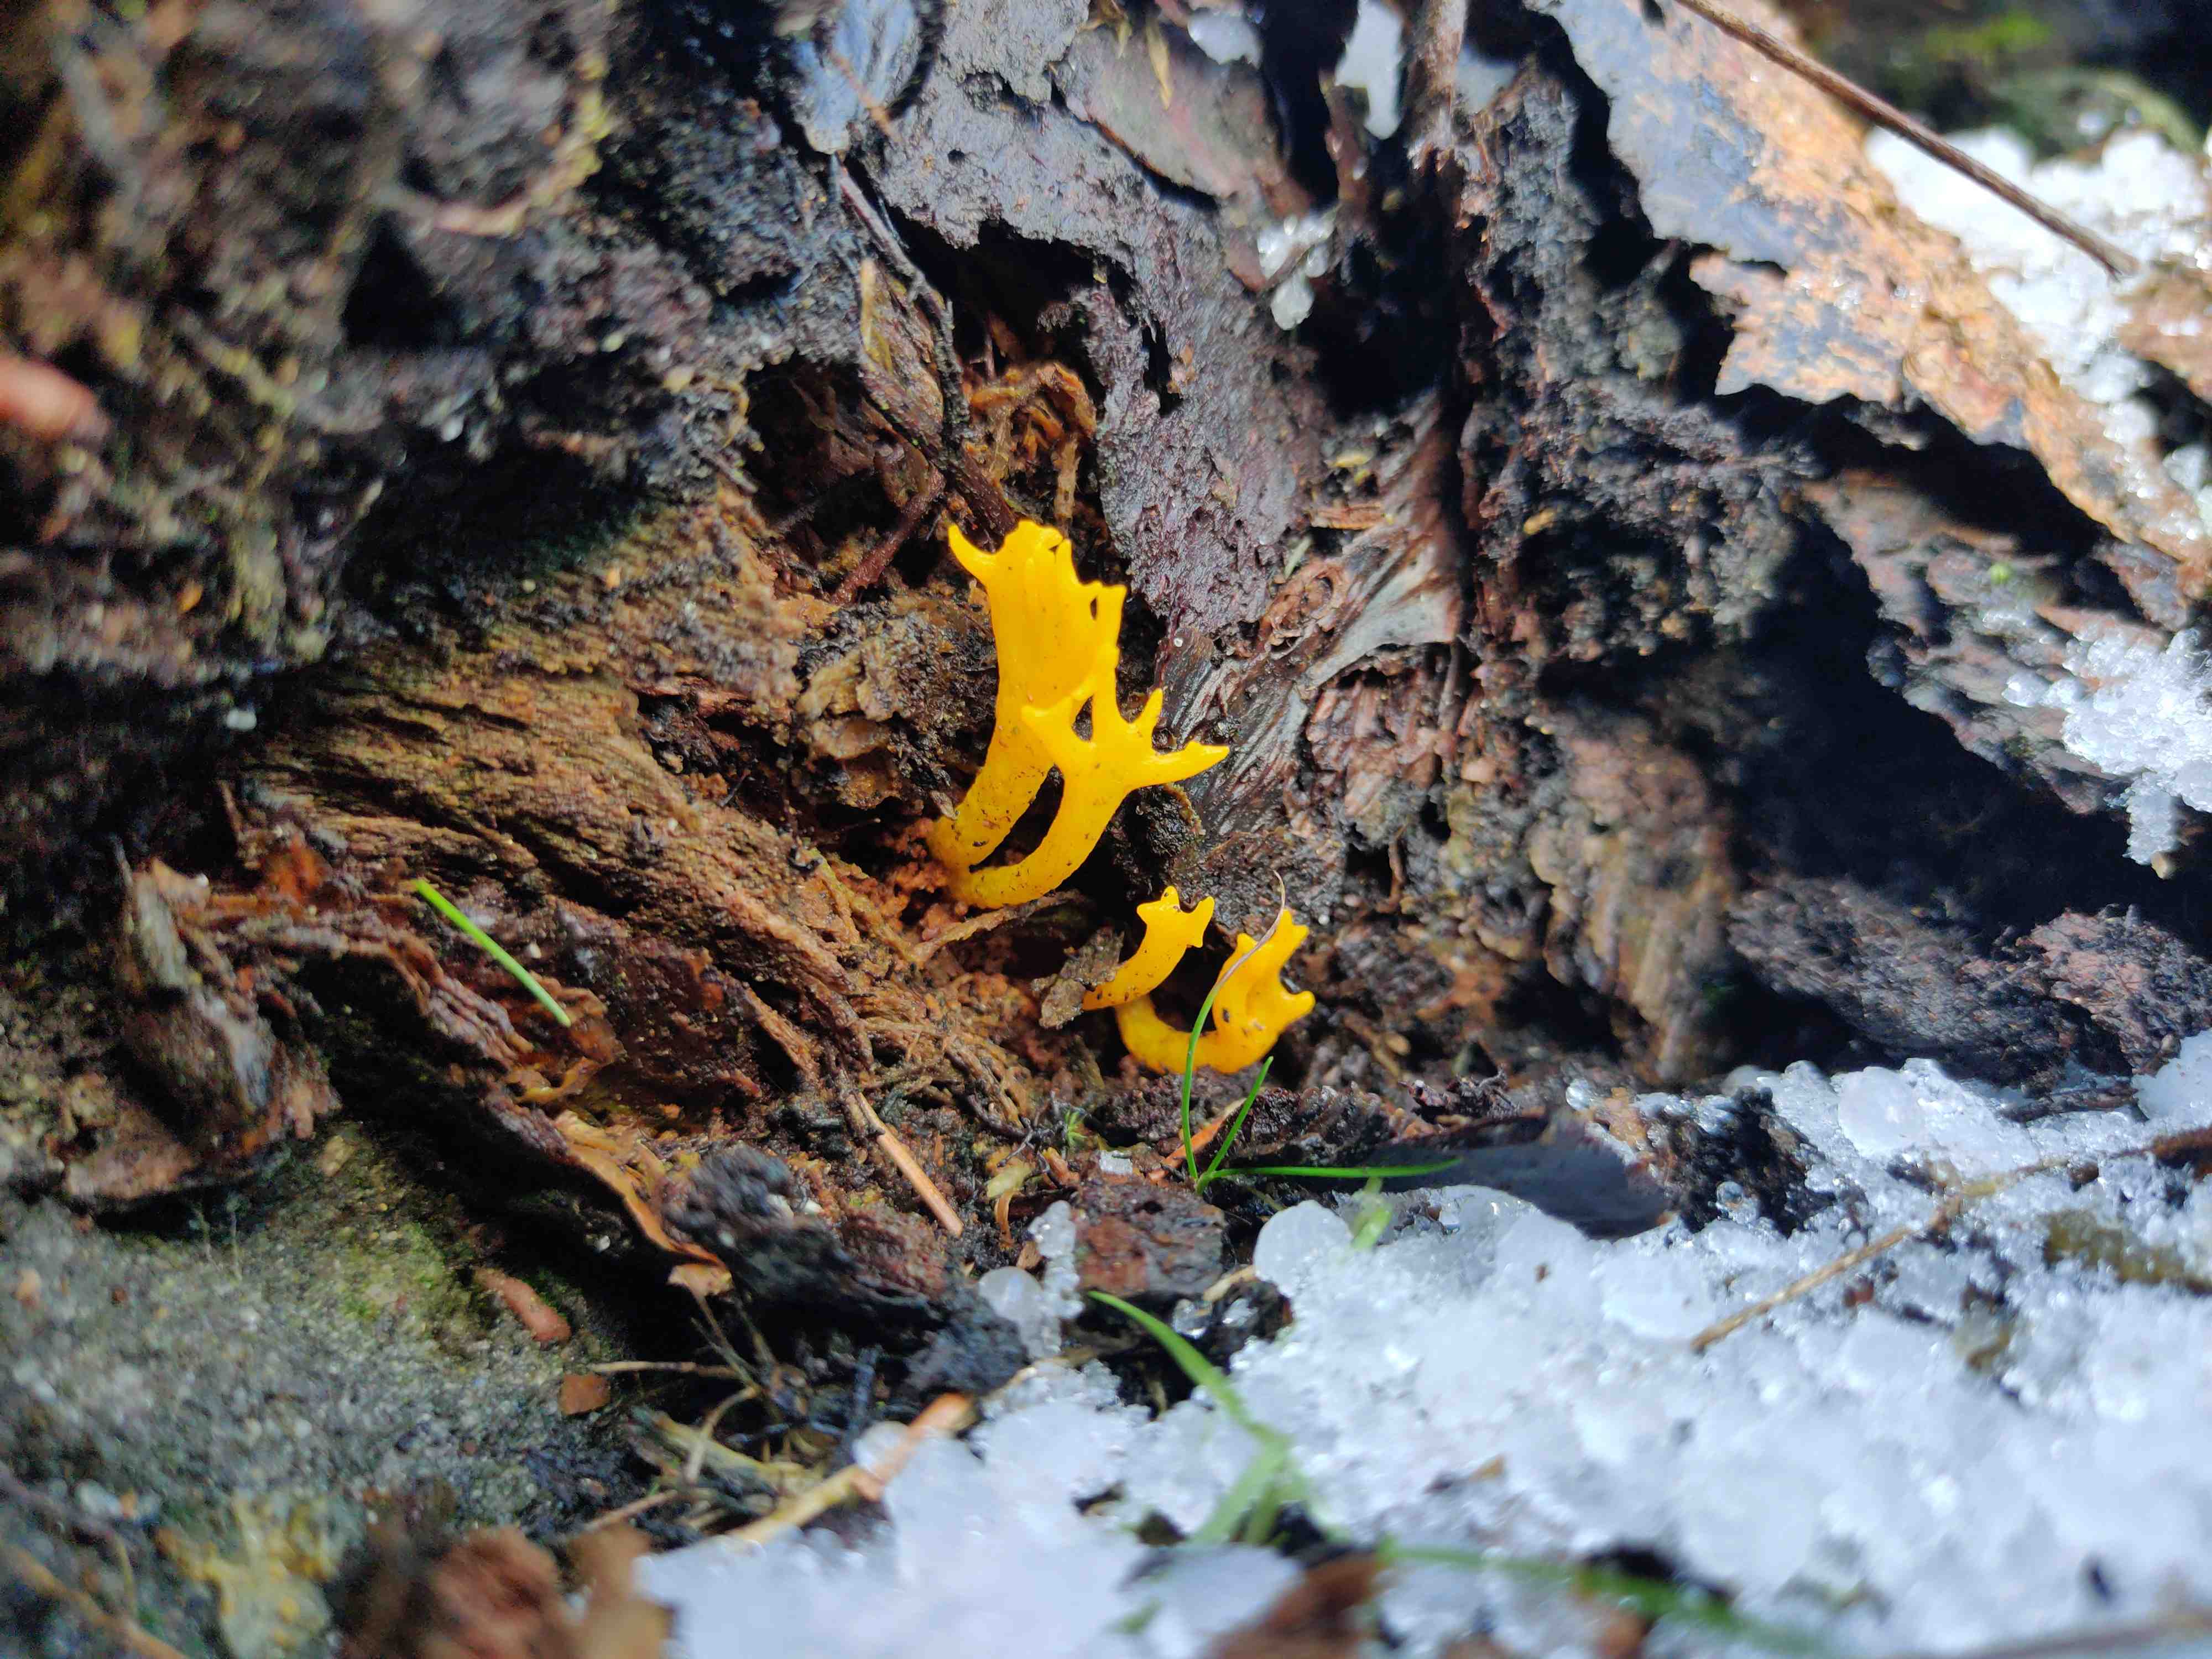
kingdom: Fungi
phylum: Basidiomycota
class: Dacrymycetes
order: Dacrymycetales
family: Dacrymycetaceae
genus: Calocera
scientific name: Calocera viscosa
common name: almindelig guldgaffel
